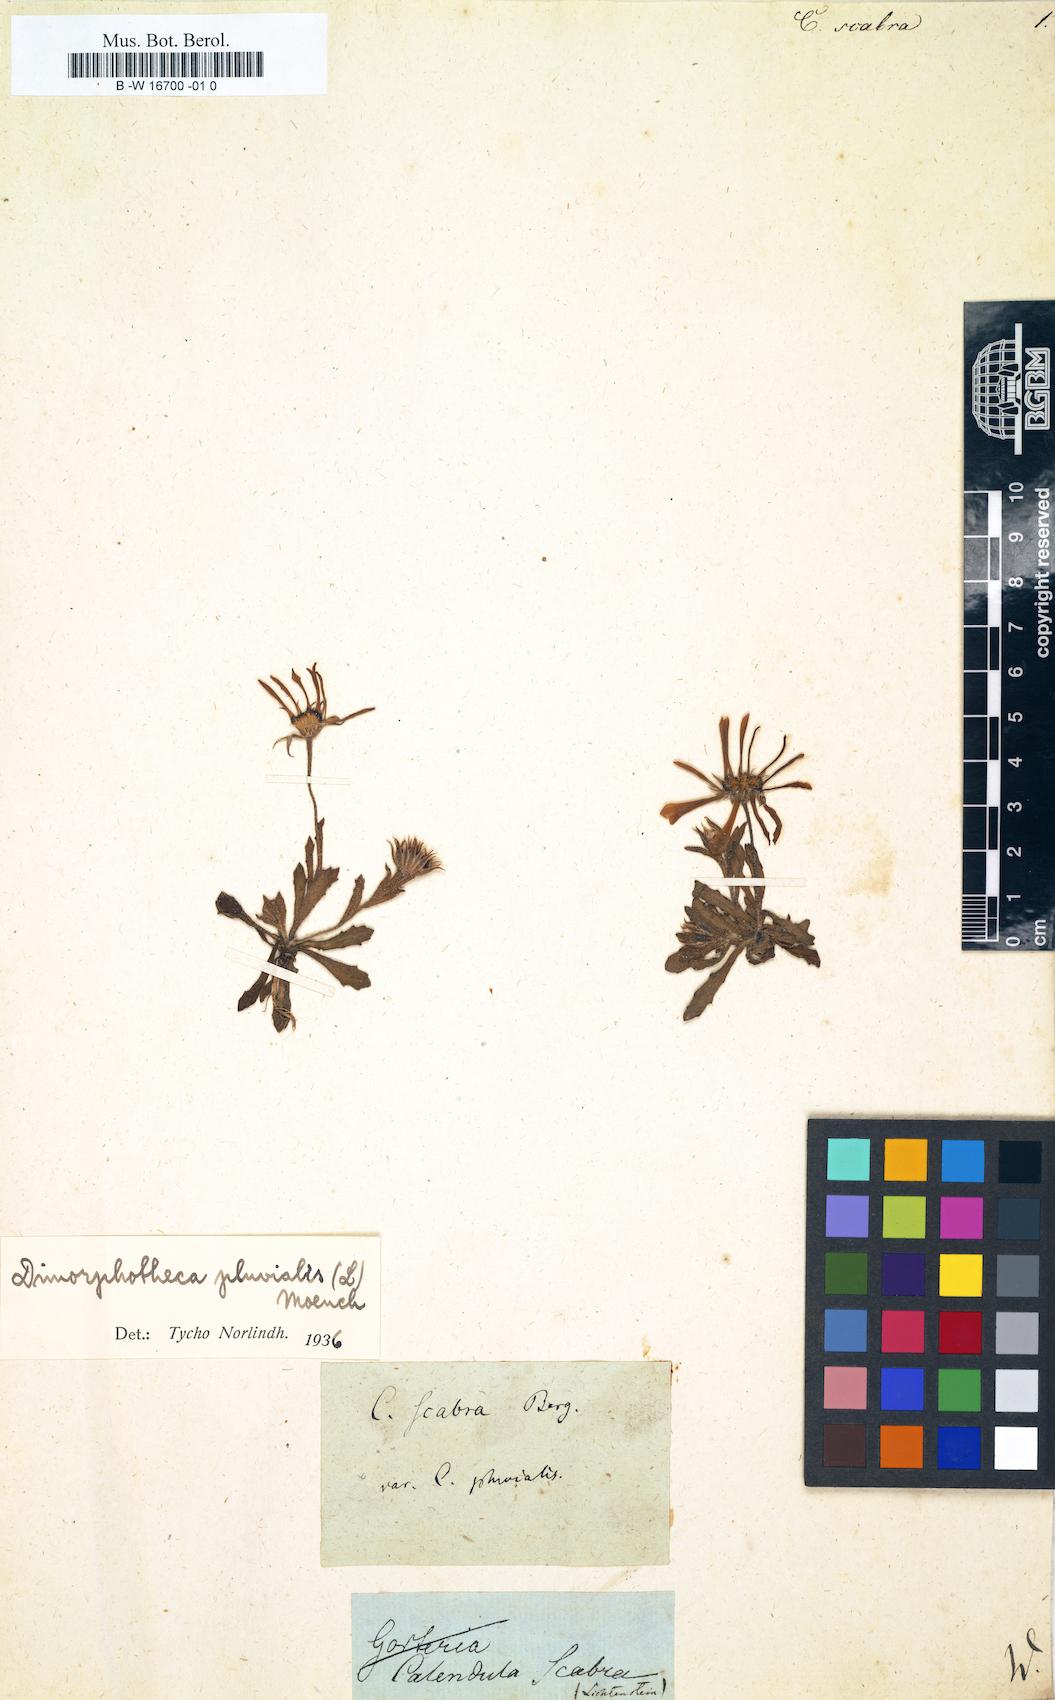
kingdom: Plantae
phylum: Tracheophyta
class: Magnoliopsida
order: Asterales
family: Asteraceae
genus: Calendula
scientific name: Calendula scabra
